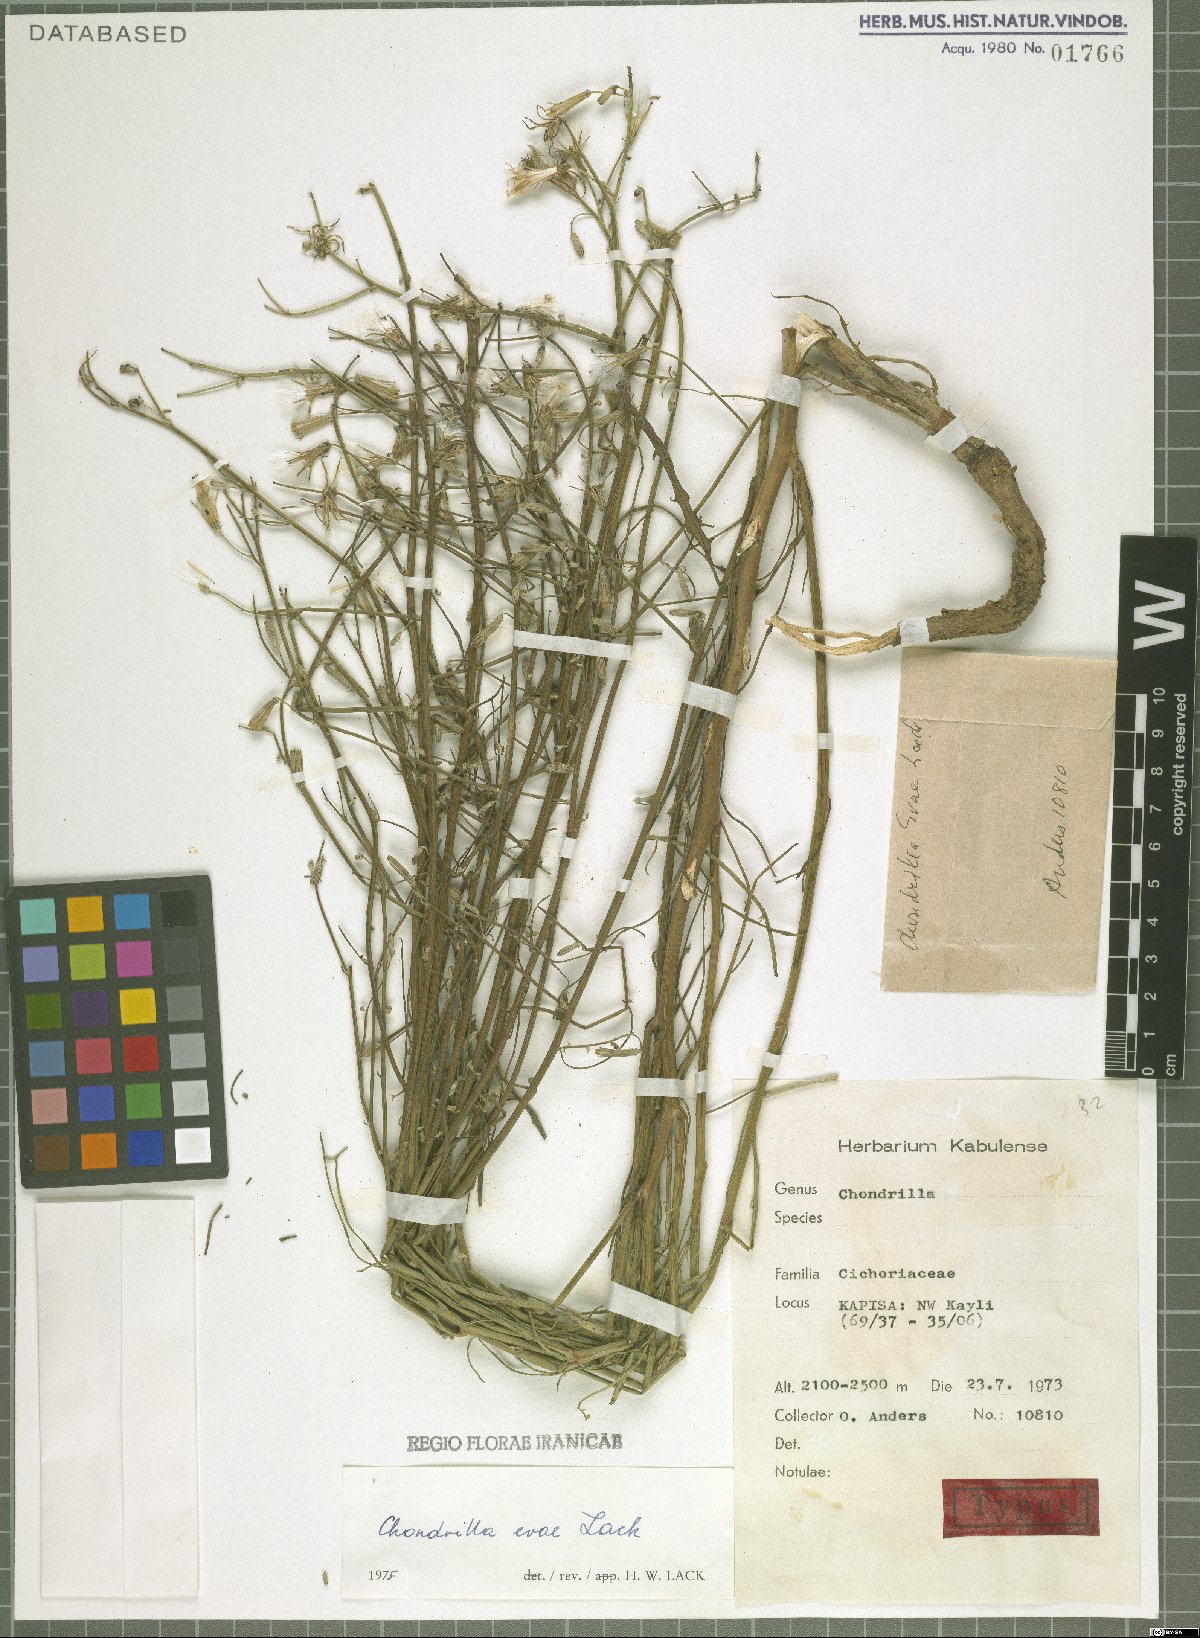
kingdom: Plantae
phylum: Tracheophyta
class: Magnoliopsida
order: Asterales
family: Asteraceae
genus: Chondrilla
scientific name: Chondrilla evae
